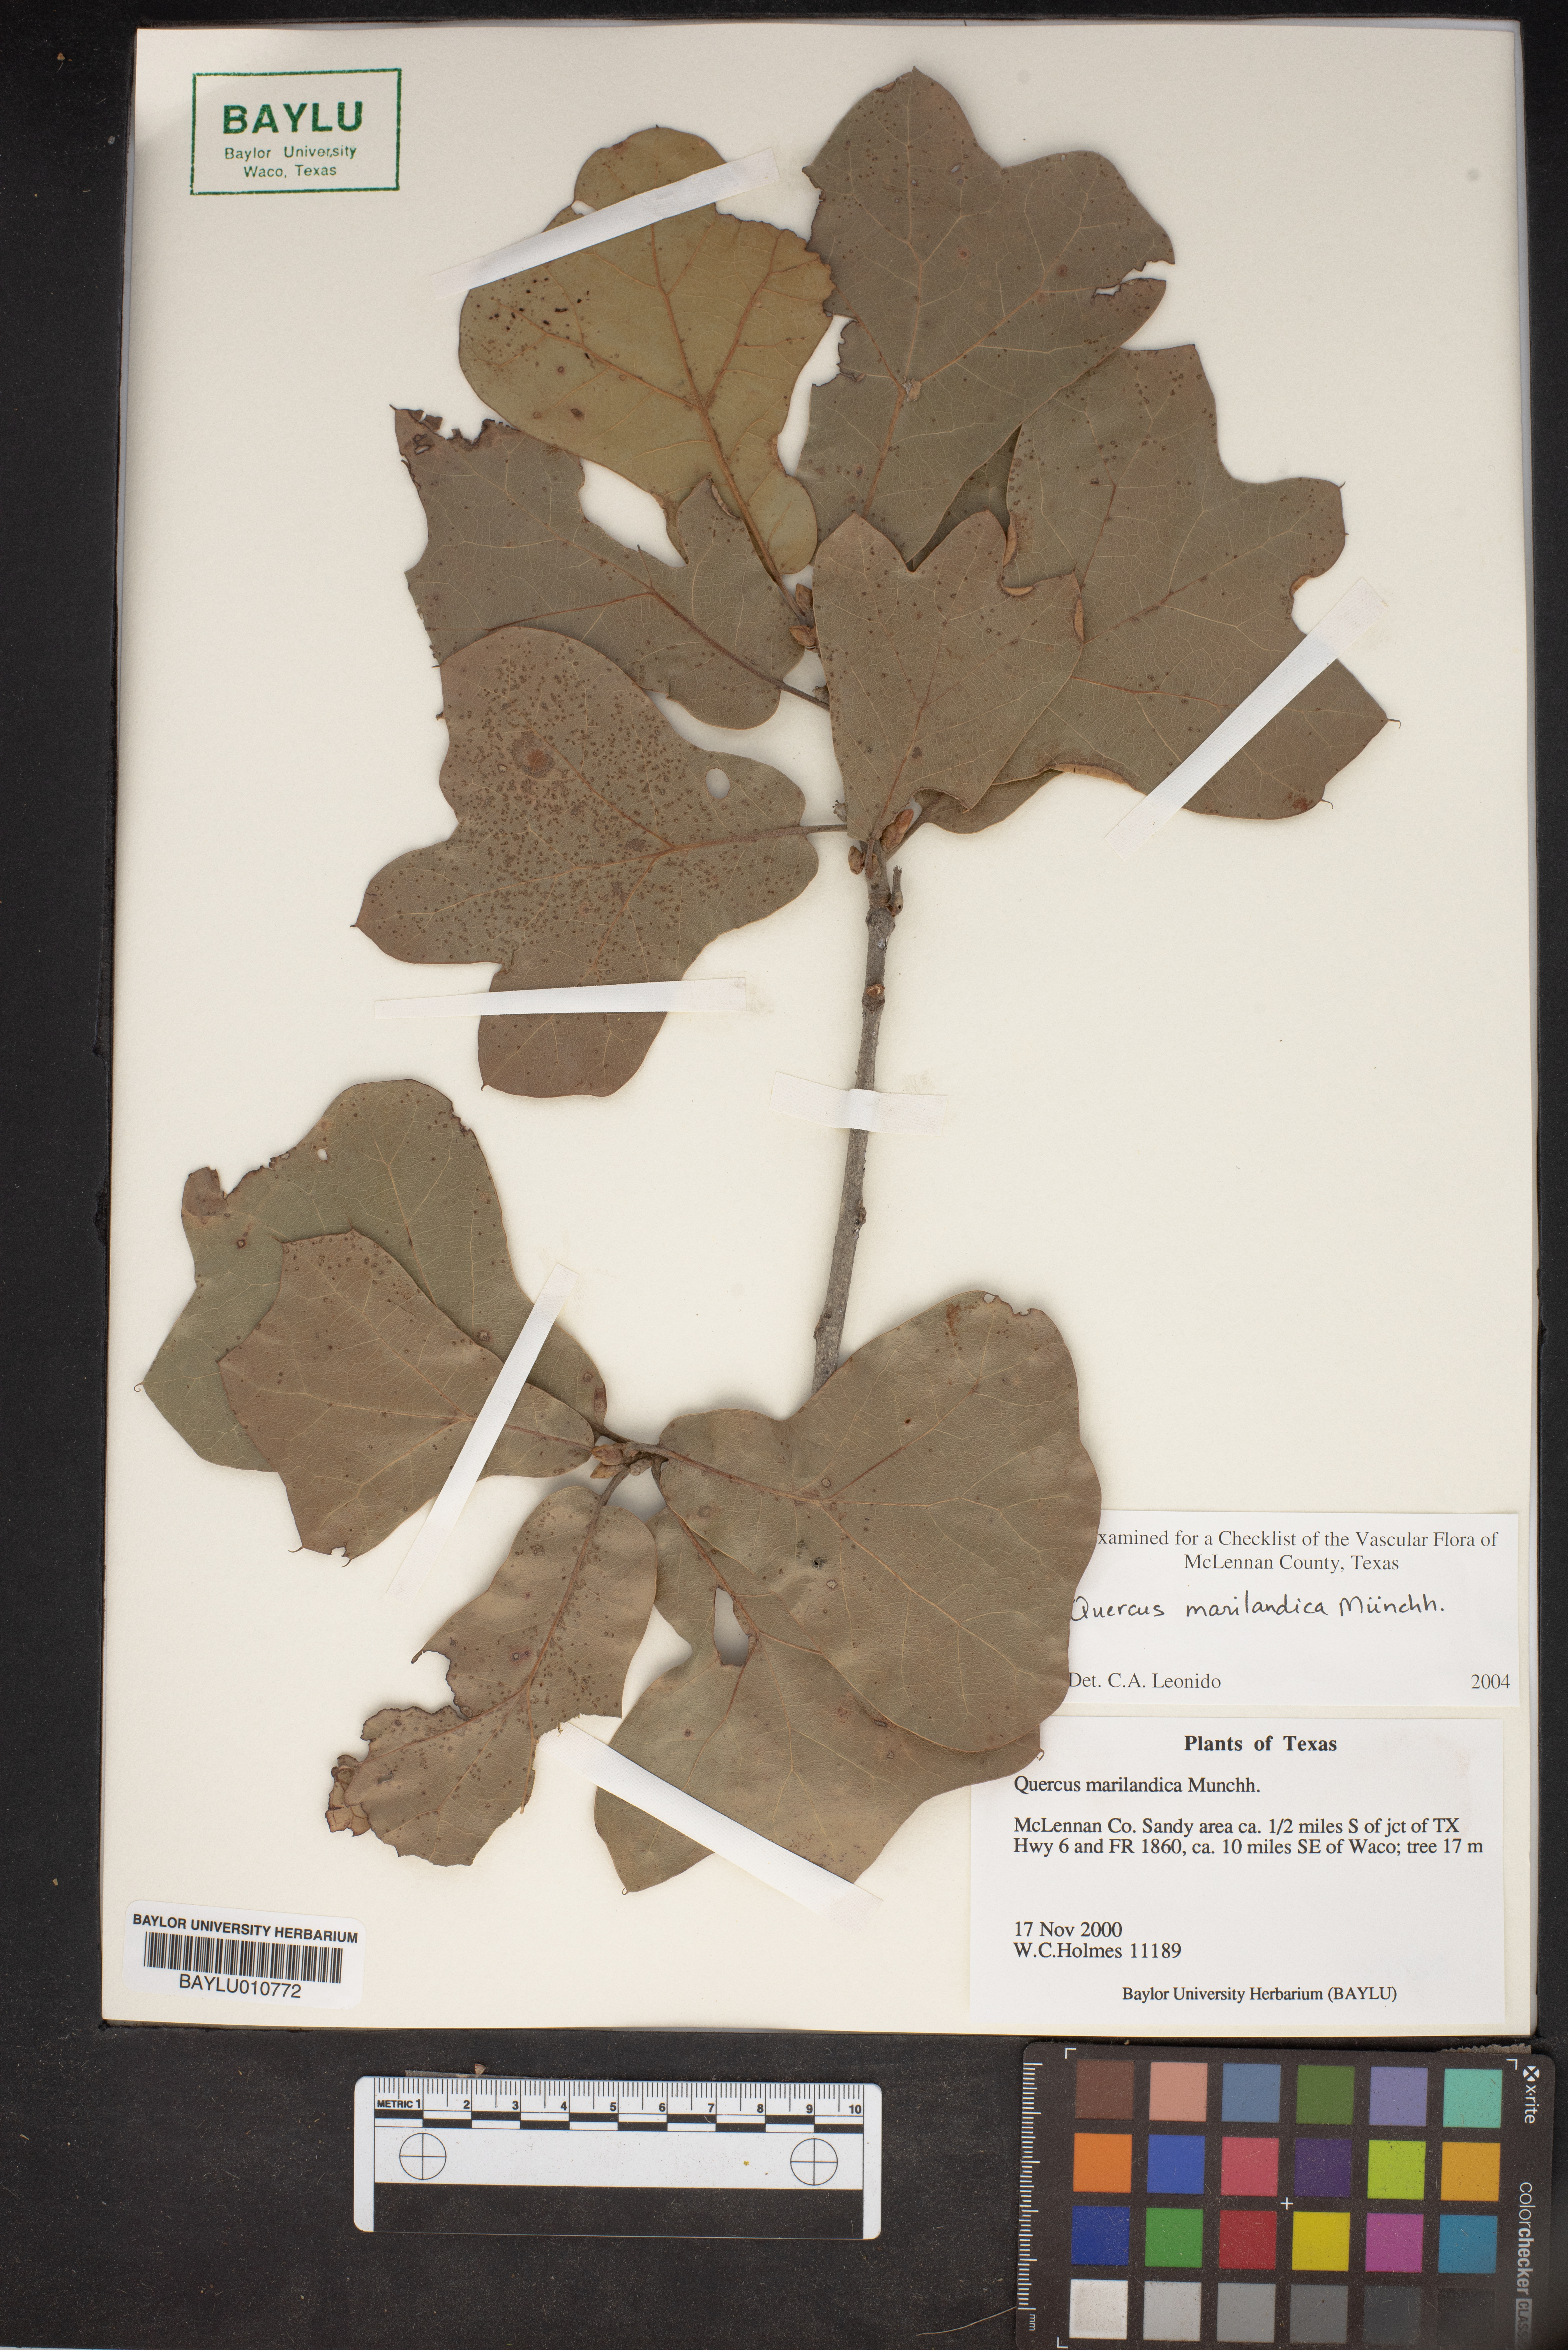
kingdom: Plantae
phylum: Tracheophyta
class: Magnoliopsida
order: Fagales
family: Fagaceae
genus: Quercus
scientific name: Quercus marilandica
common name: Blackjack oak
